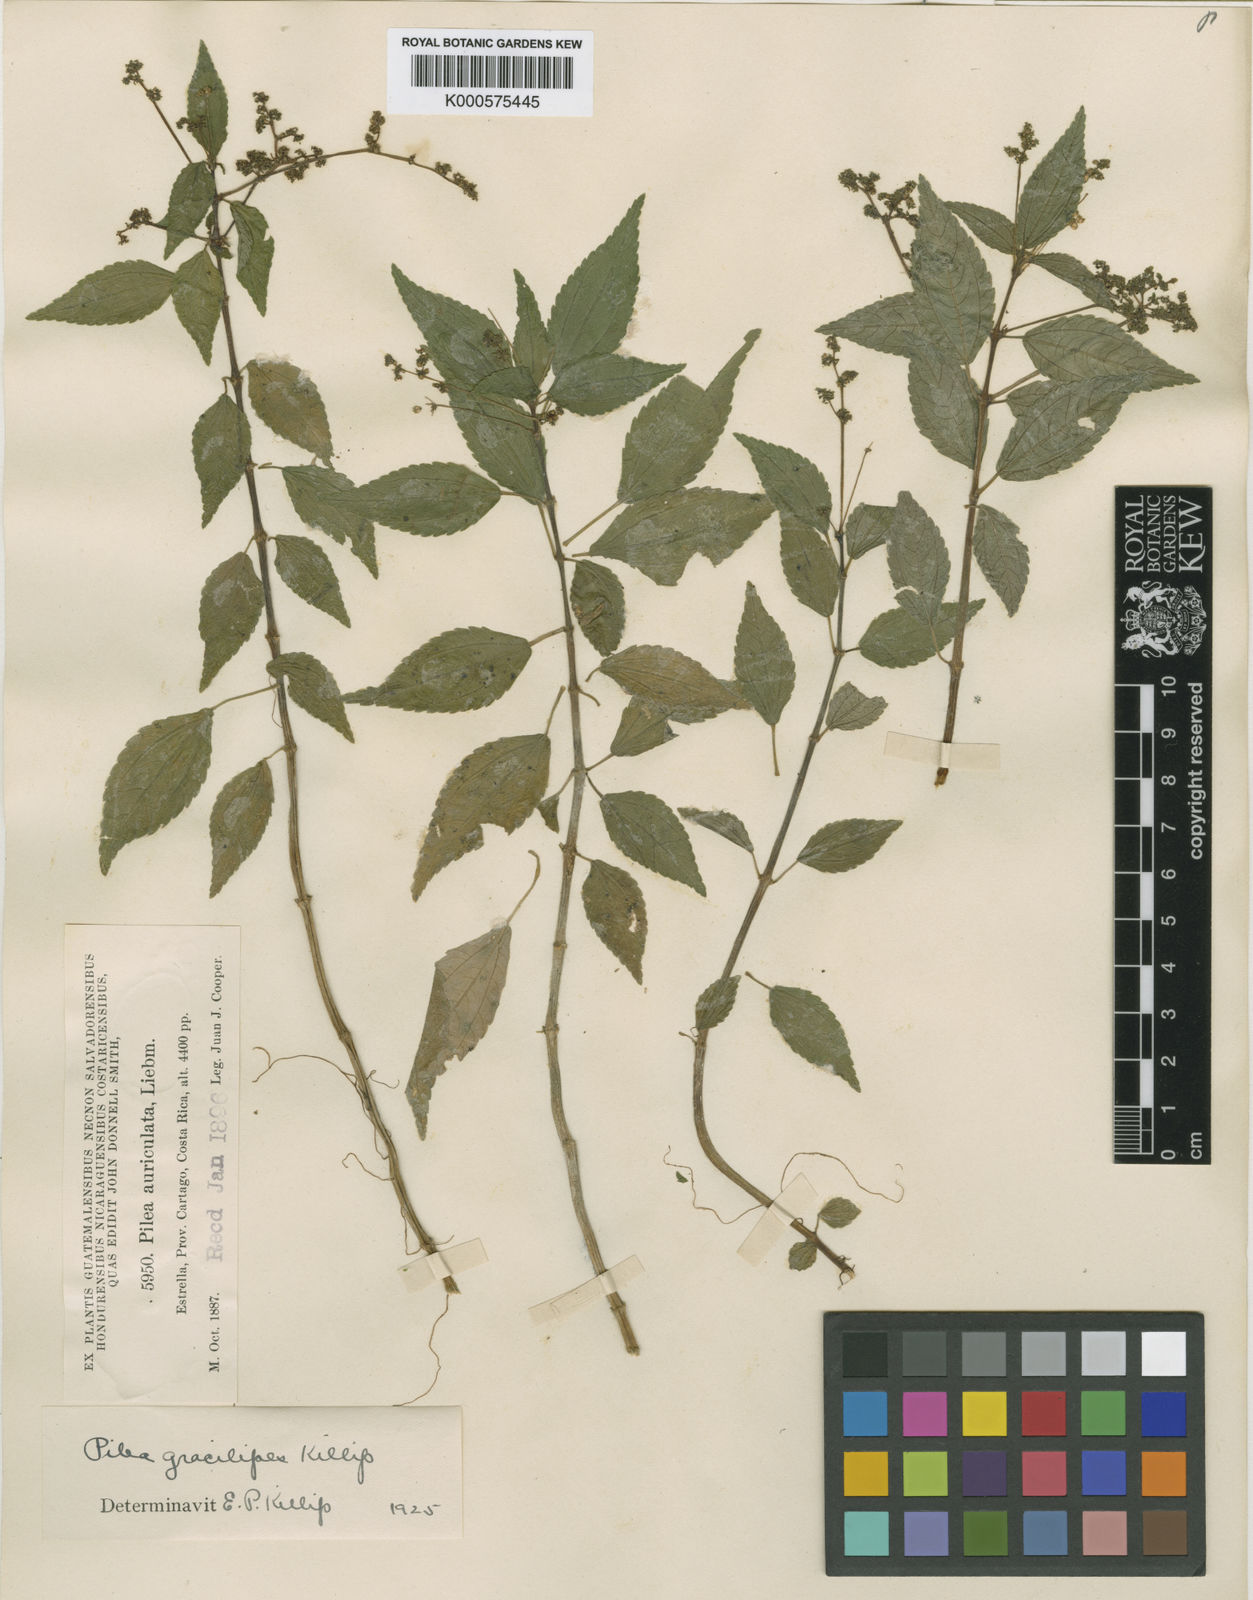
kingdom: Plantae
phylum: Tracheophyta
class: Magnoliopsida
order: Rosales
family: Urticaceae
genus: Pilea
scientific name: Pilea vulcanica
